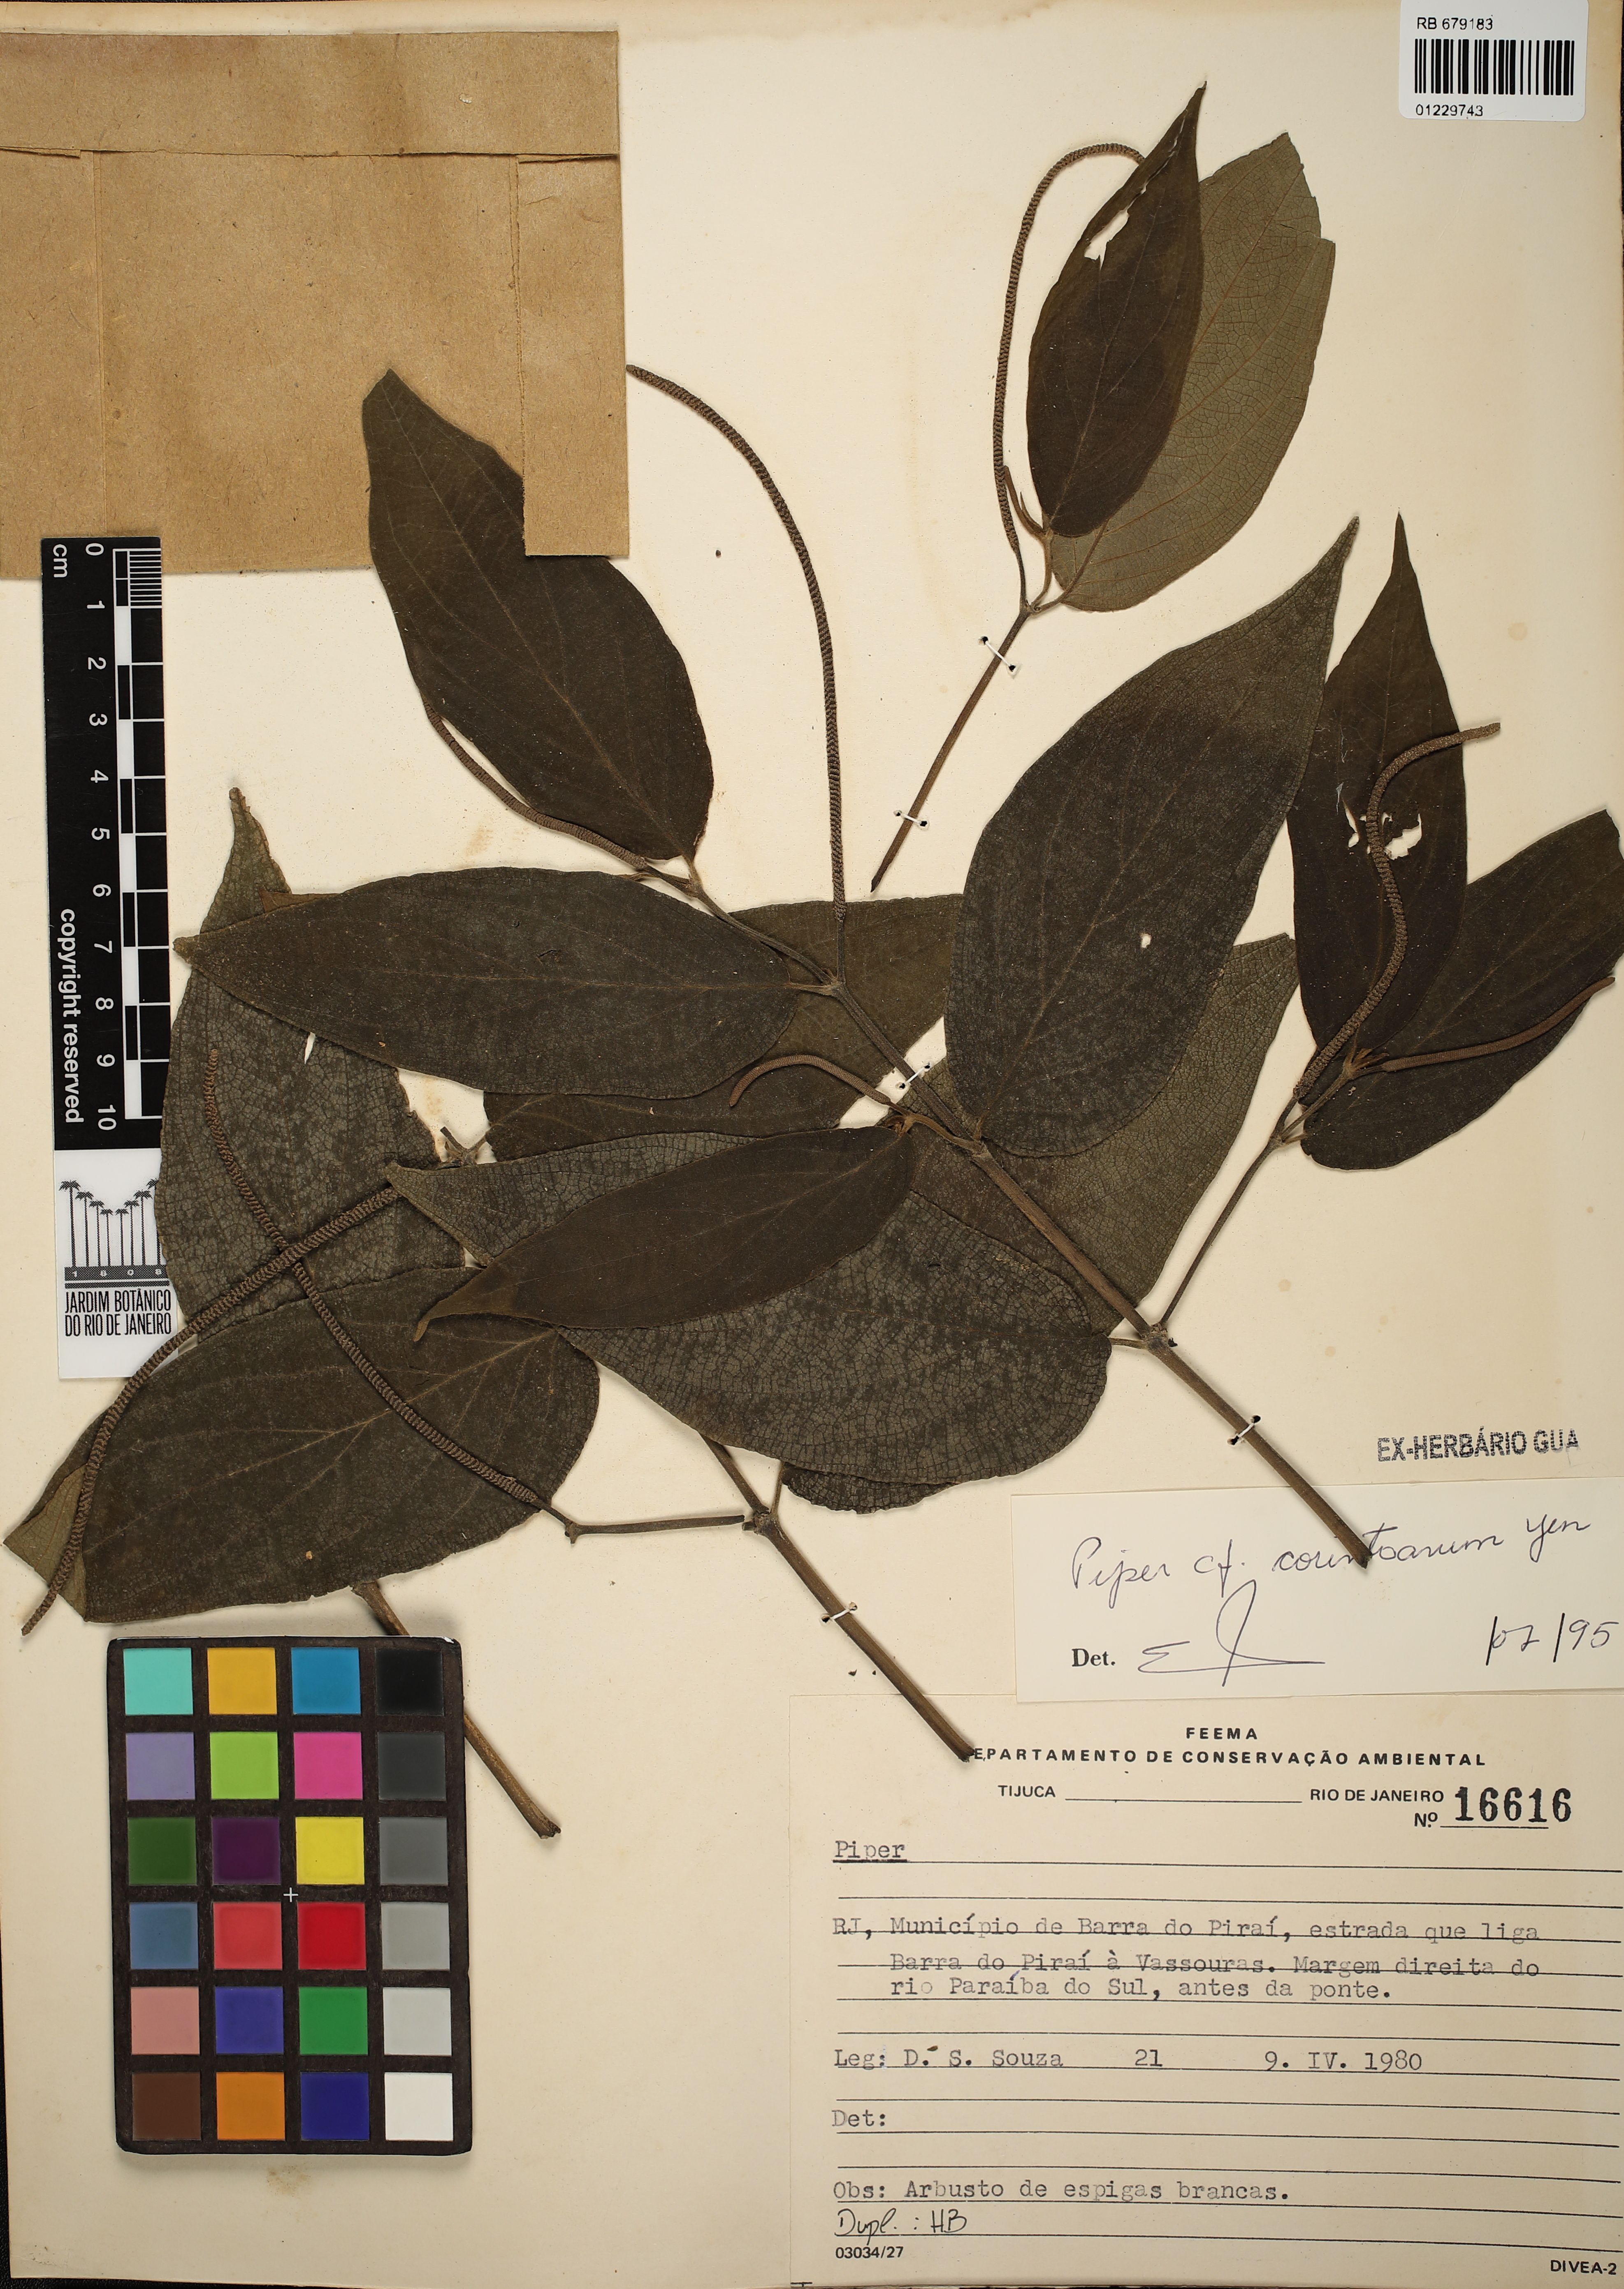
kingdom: Plantae
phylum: Tracheophyta
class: Magnoliopsida
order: Piperales
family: Piperaceae
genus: Piper
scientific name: Piper corintoanum
